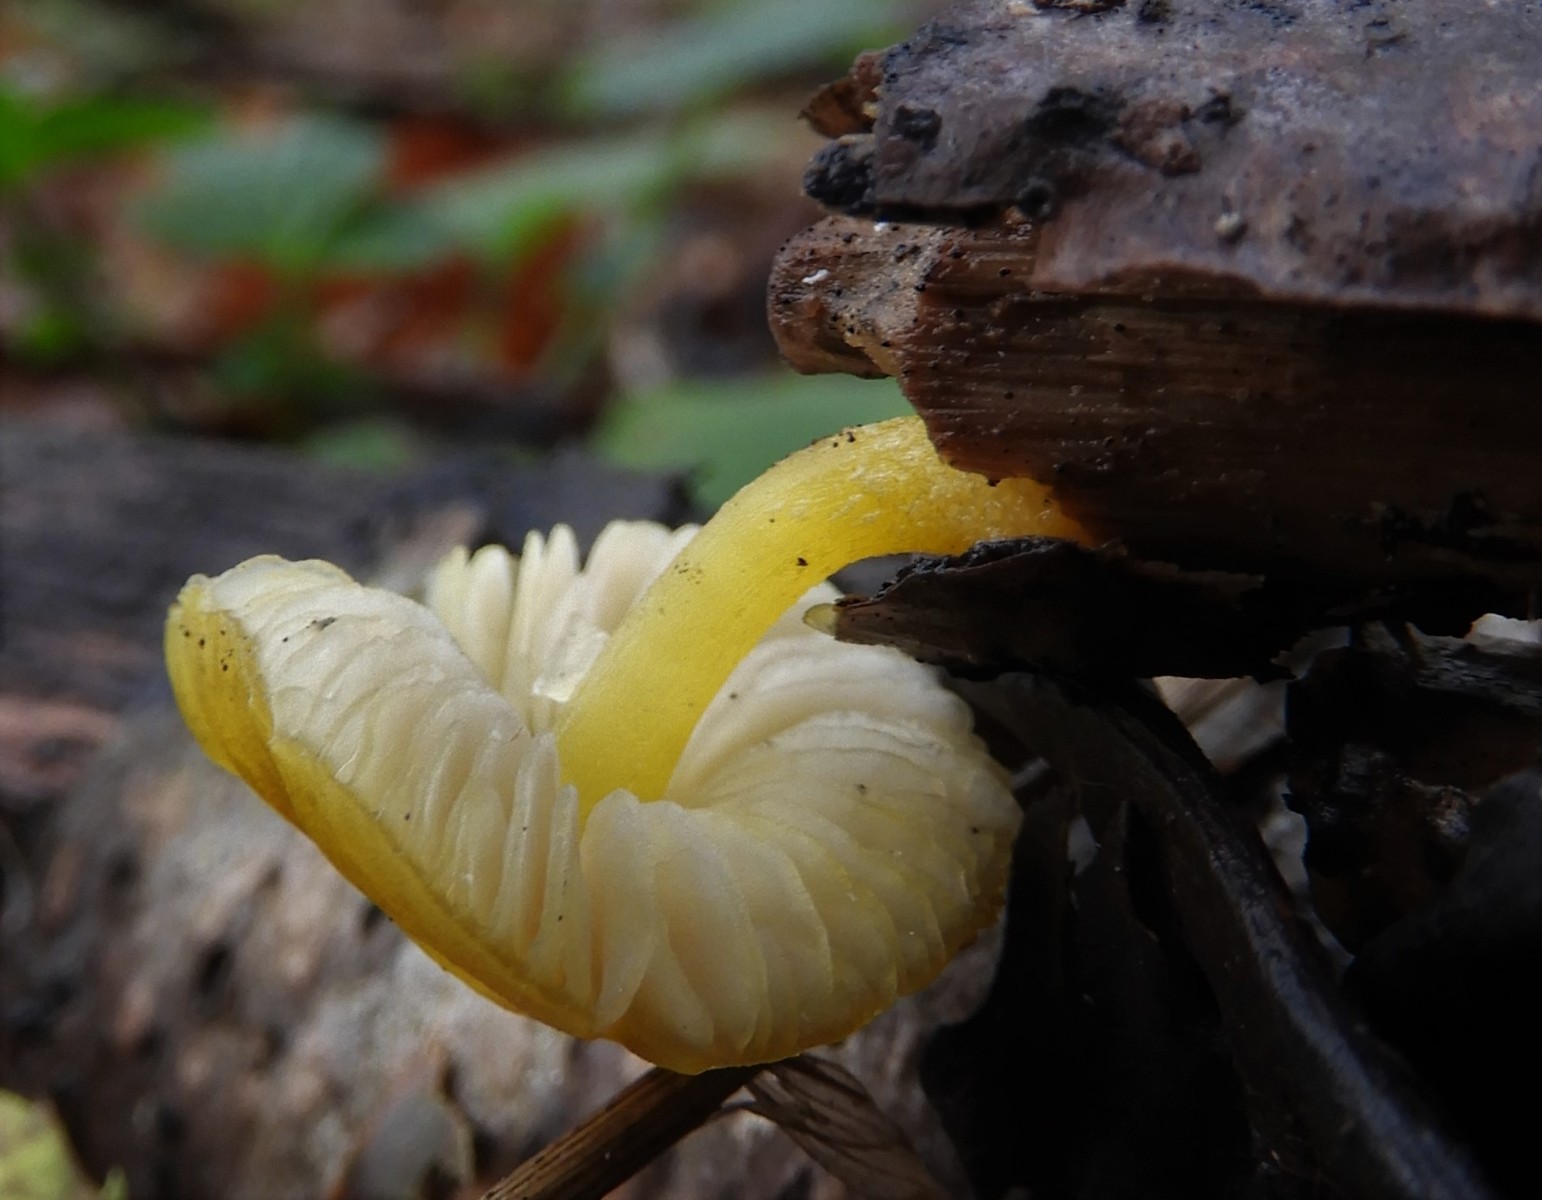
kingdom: Fungi
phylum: Basidiomycota
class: Agaricomycetes
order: Agaricales
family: Pluteaceae
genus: Pluteus
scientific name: Pluteus vellingae
